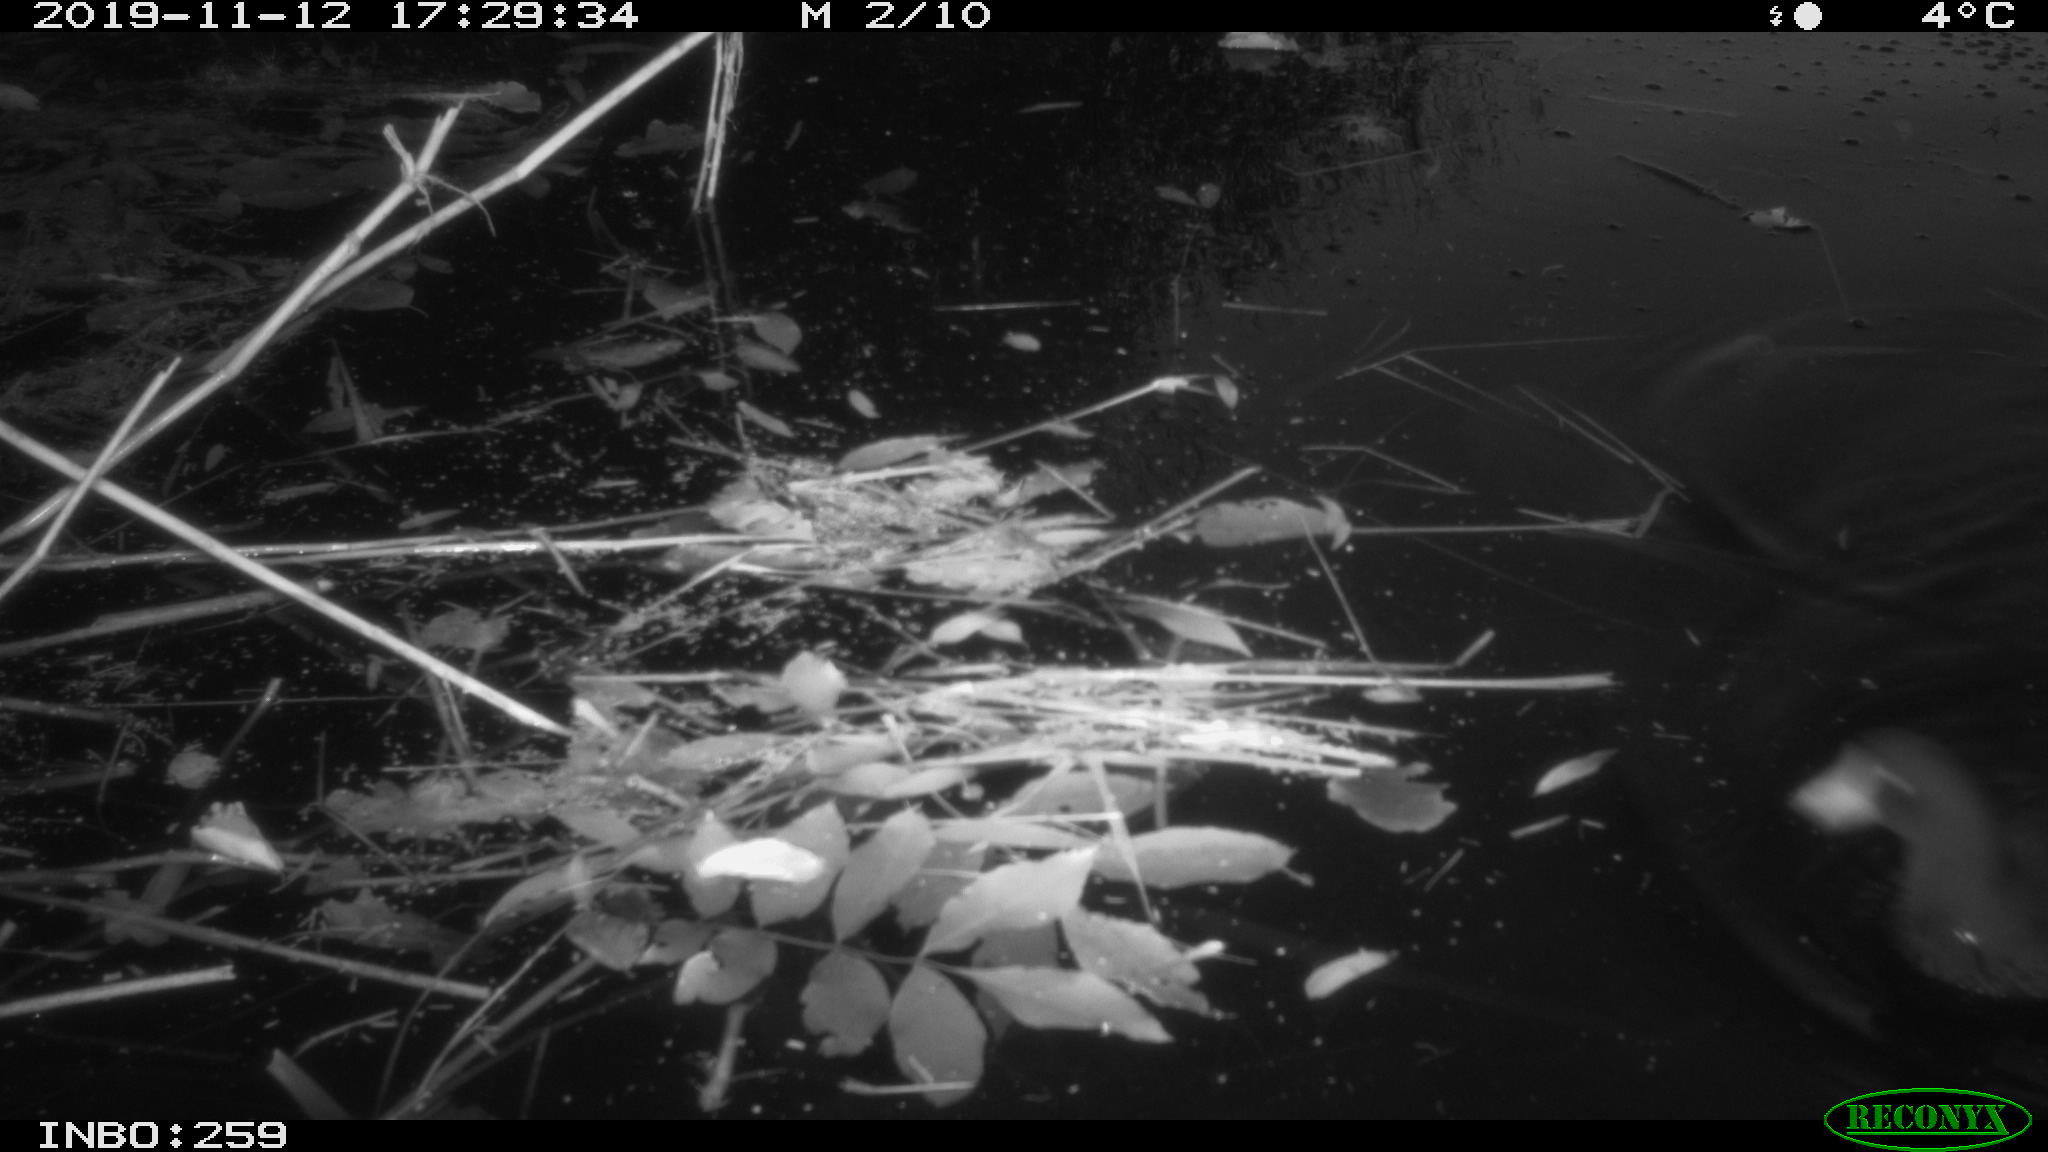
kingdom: Animalia
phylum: Chordata
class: Aves
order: Gruiformes
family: Rallidae
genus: Gallinula
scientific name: Gallinula chloropus
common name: Common moorhen
